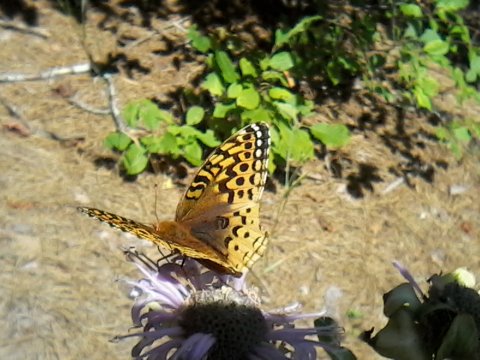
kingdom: Animalia
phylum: Arthropoda
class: Insecta
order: Lepidoptera
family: Nymphalidae
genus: Speyeria
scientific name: Speyeria cybele
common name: Great Spangled Fritillary
